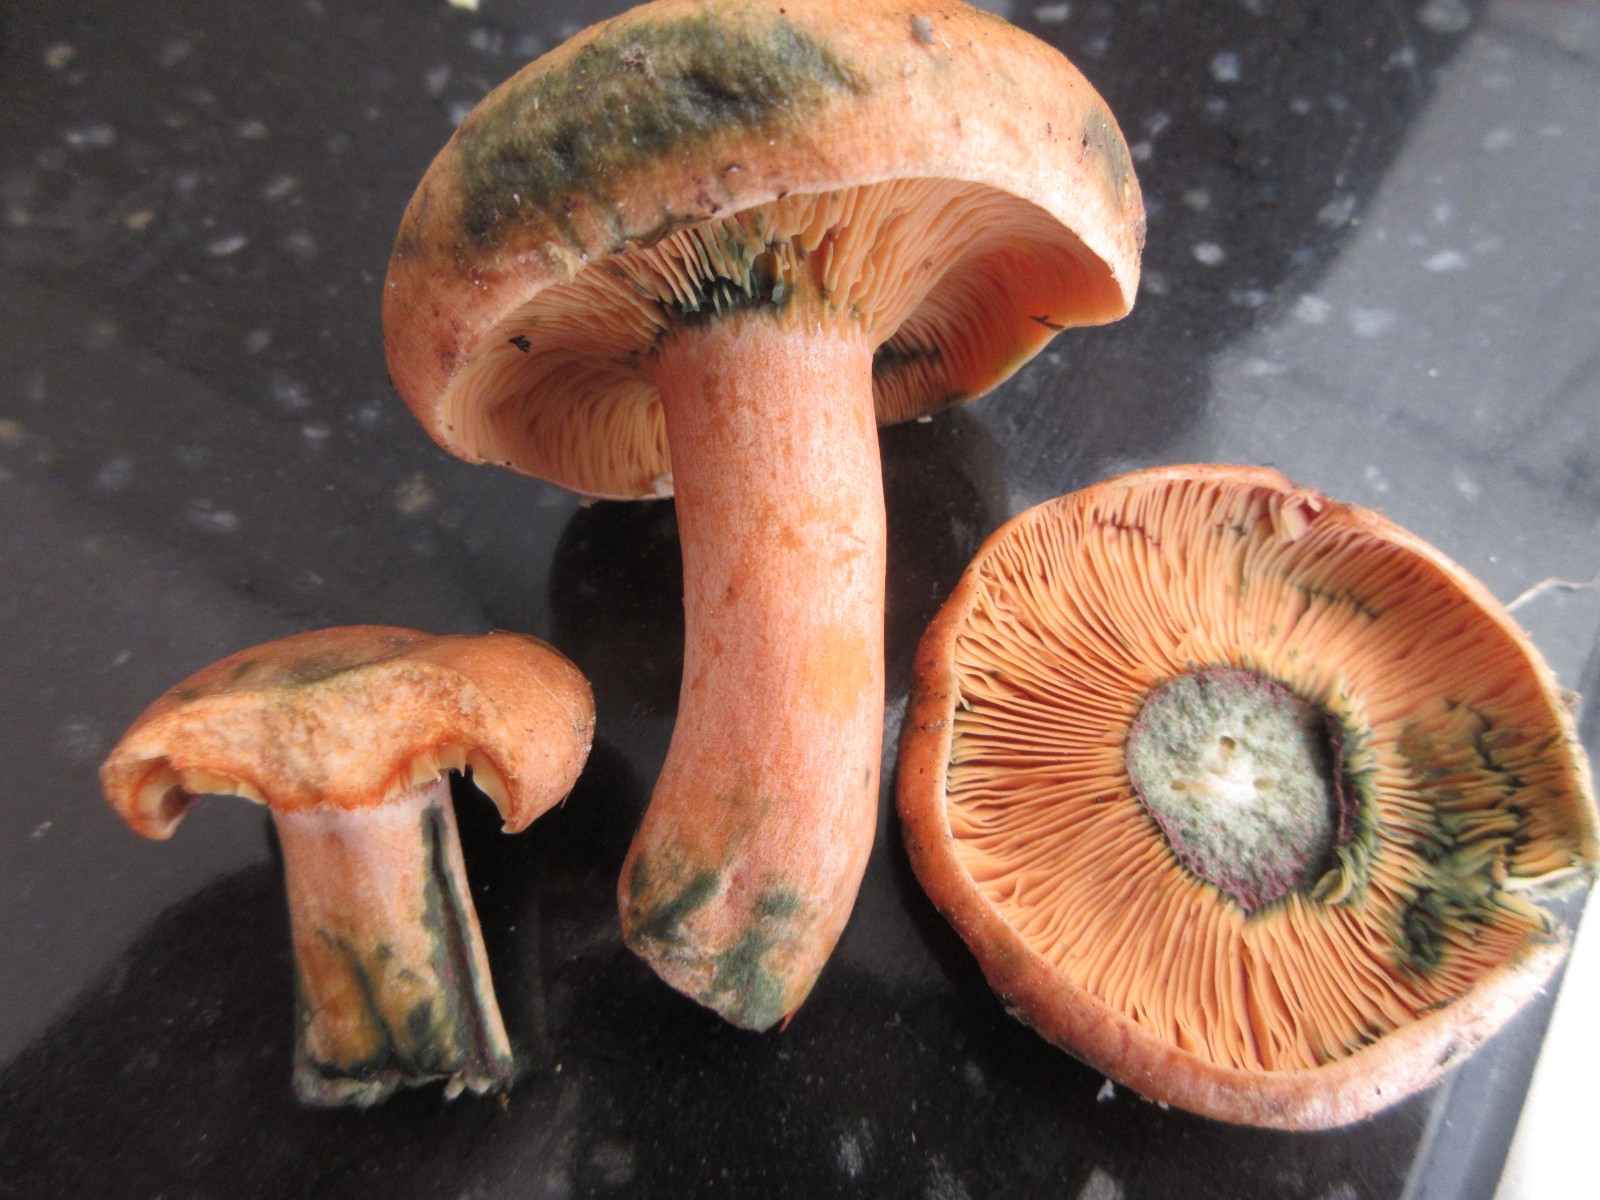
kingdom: Fungi
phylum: Basidiomycota
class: Agaricomycetes
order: Russulales
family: Russulaceae
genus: Lactarius
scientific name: Lactarius deterrimus
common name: gran-mælkehat
